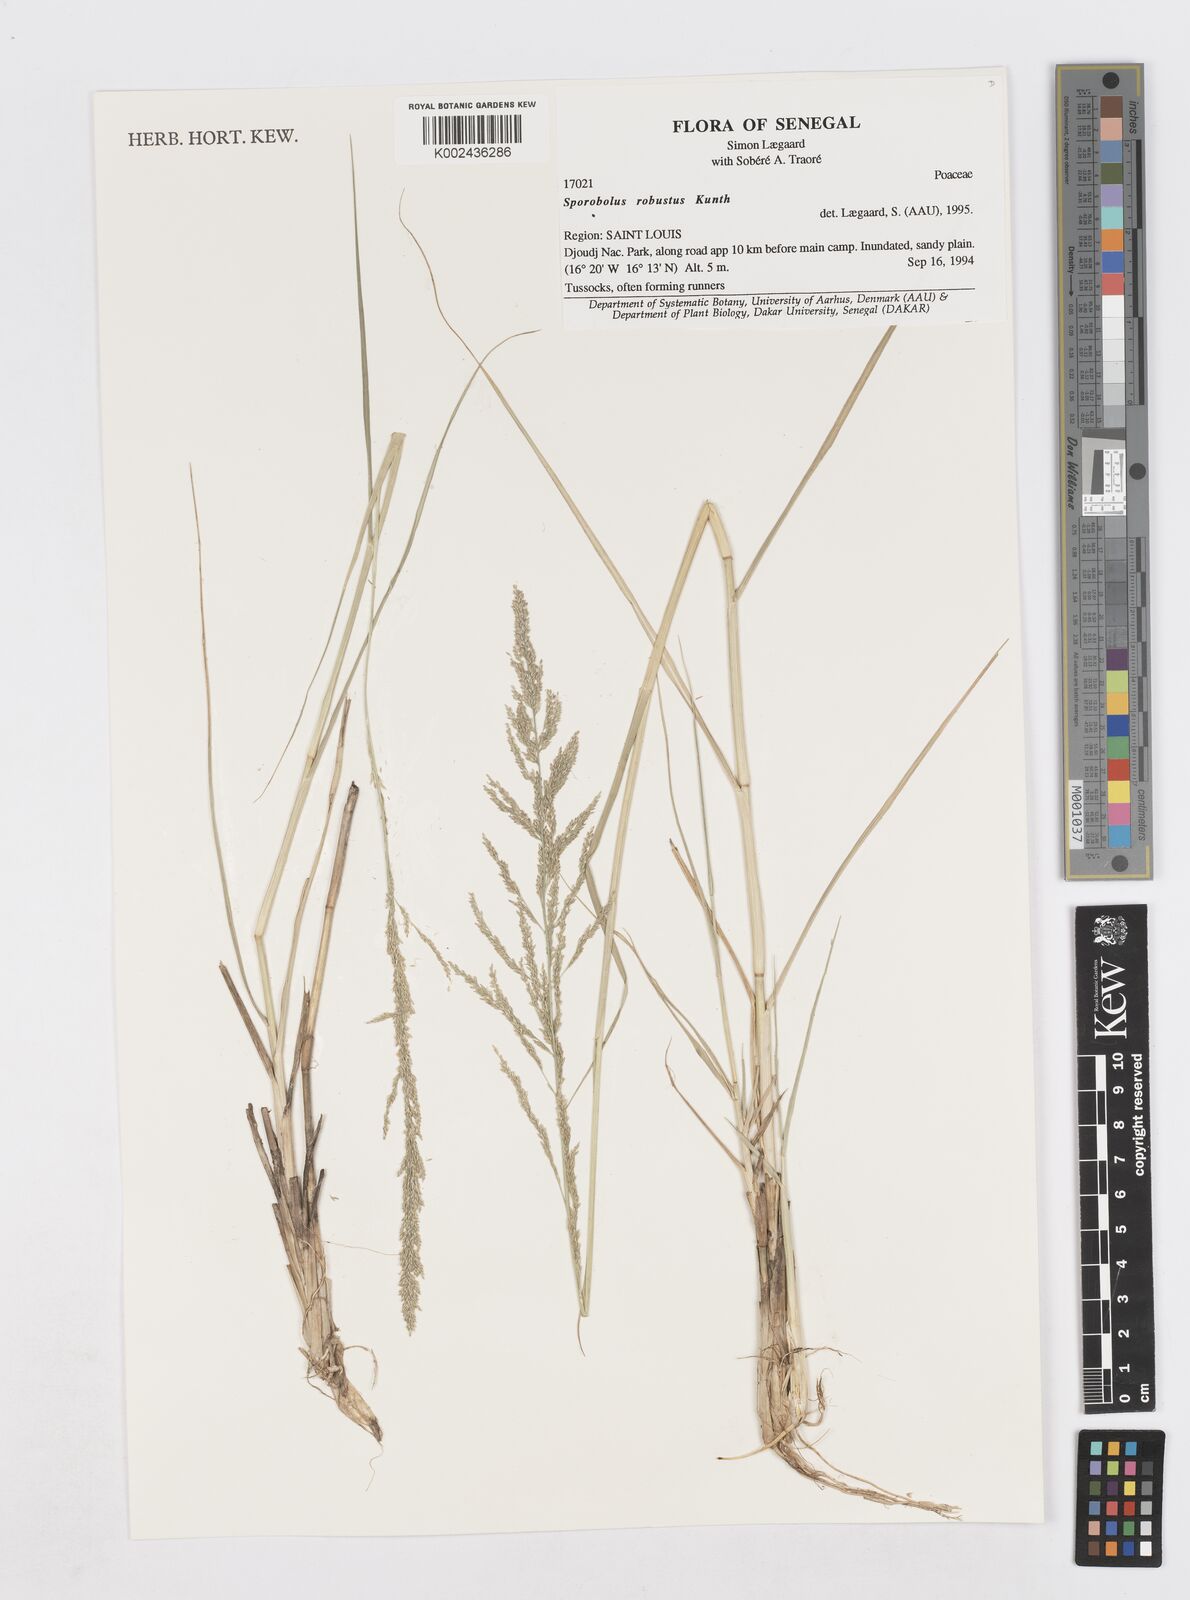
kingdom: Plantae
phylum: Tracheophyta
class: Liliopsida
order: Poales
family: Poaceae
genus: Sporobolus
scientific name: Sporobolus robustus
